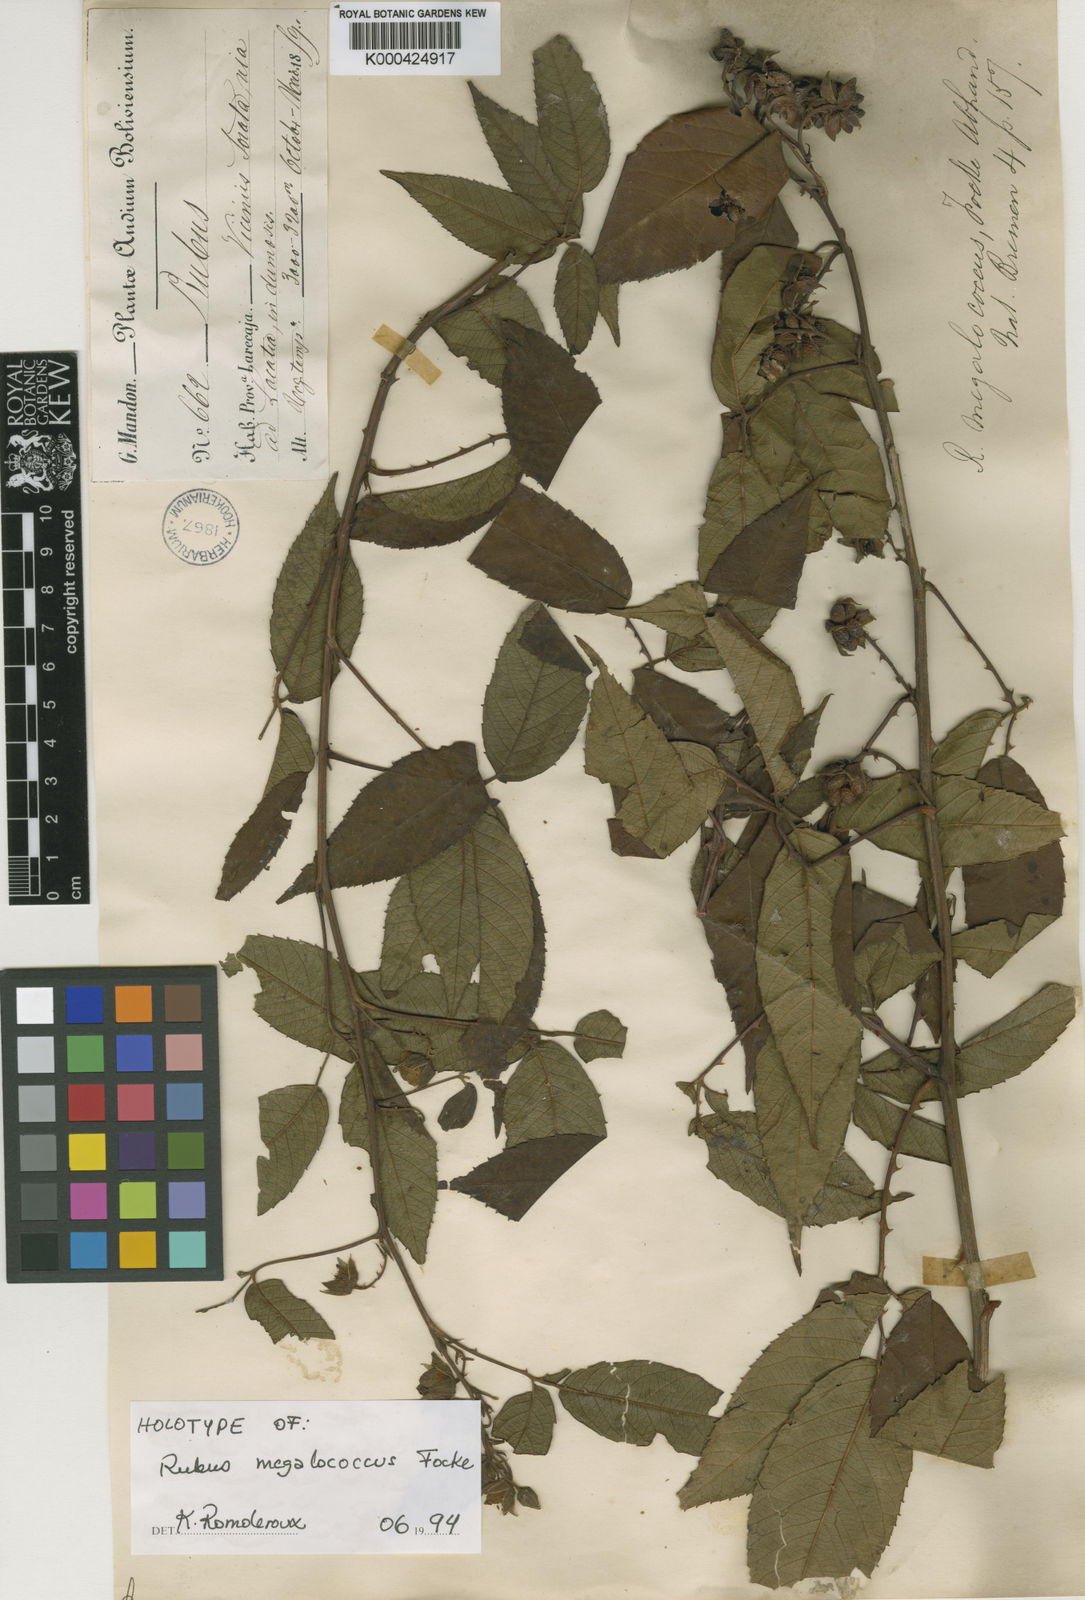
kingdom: Plantae
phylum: Tracheophyta
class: Magnoliopsida
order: Rosales
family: Rosaceae
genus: Rubus
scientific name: Rubus megalococcus
